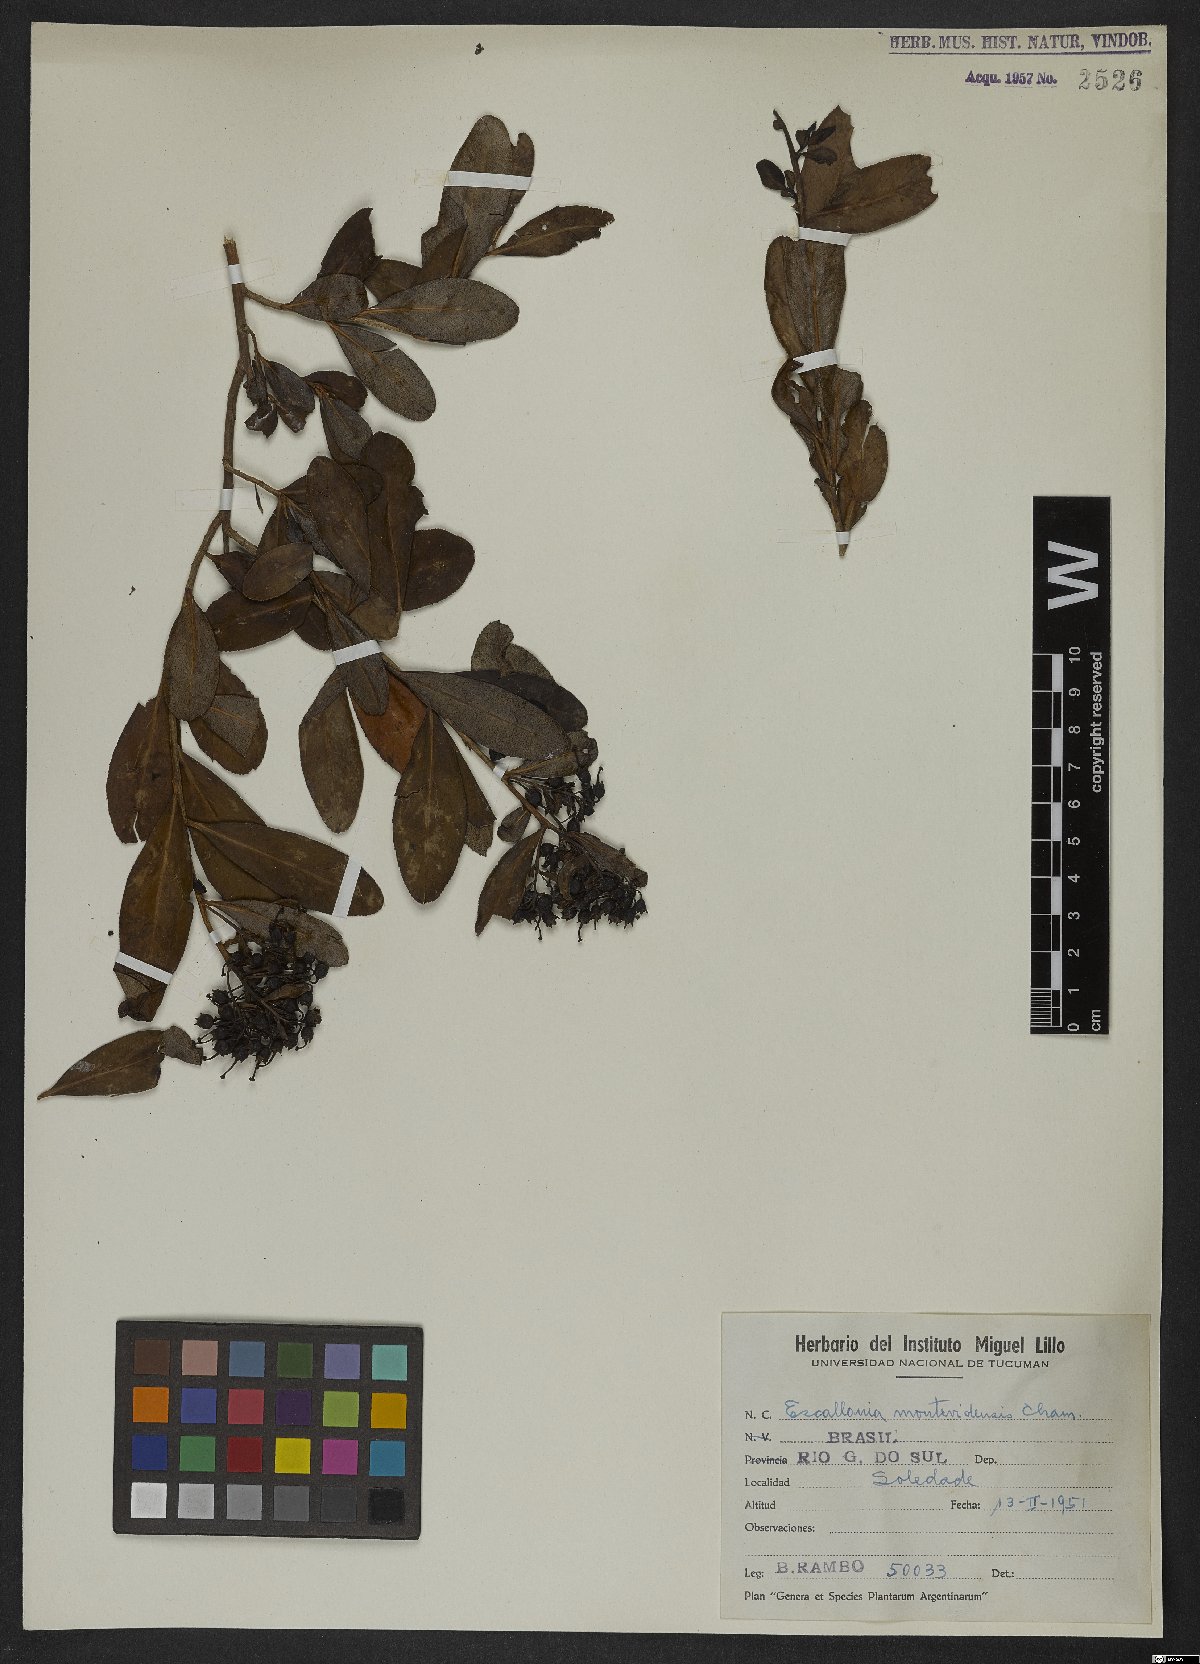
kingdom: Plantae
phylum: Tracheophyta
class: Magnoliopsida
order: Escalloniales
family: Escalloniaceae
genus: Escallonia
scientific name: Escallonia bifida
